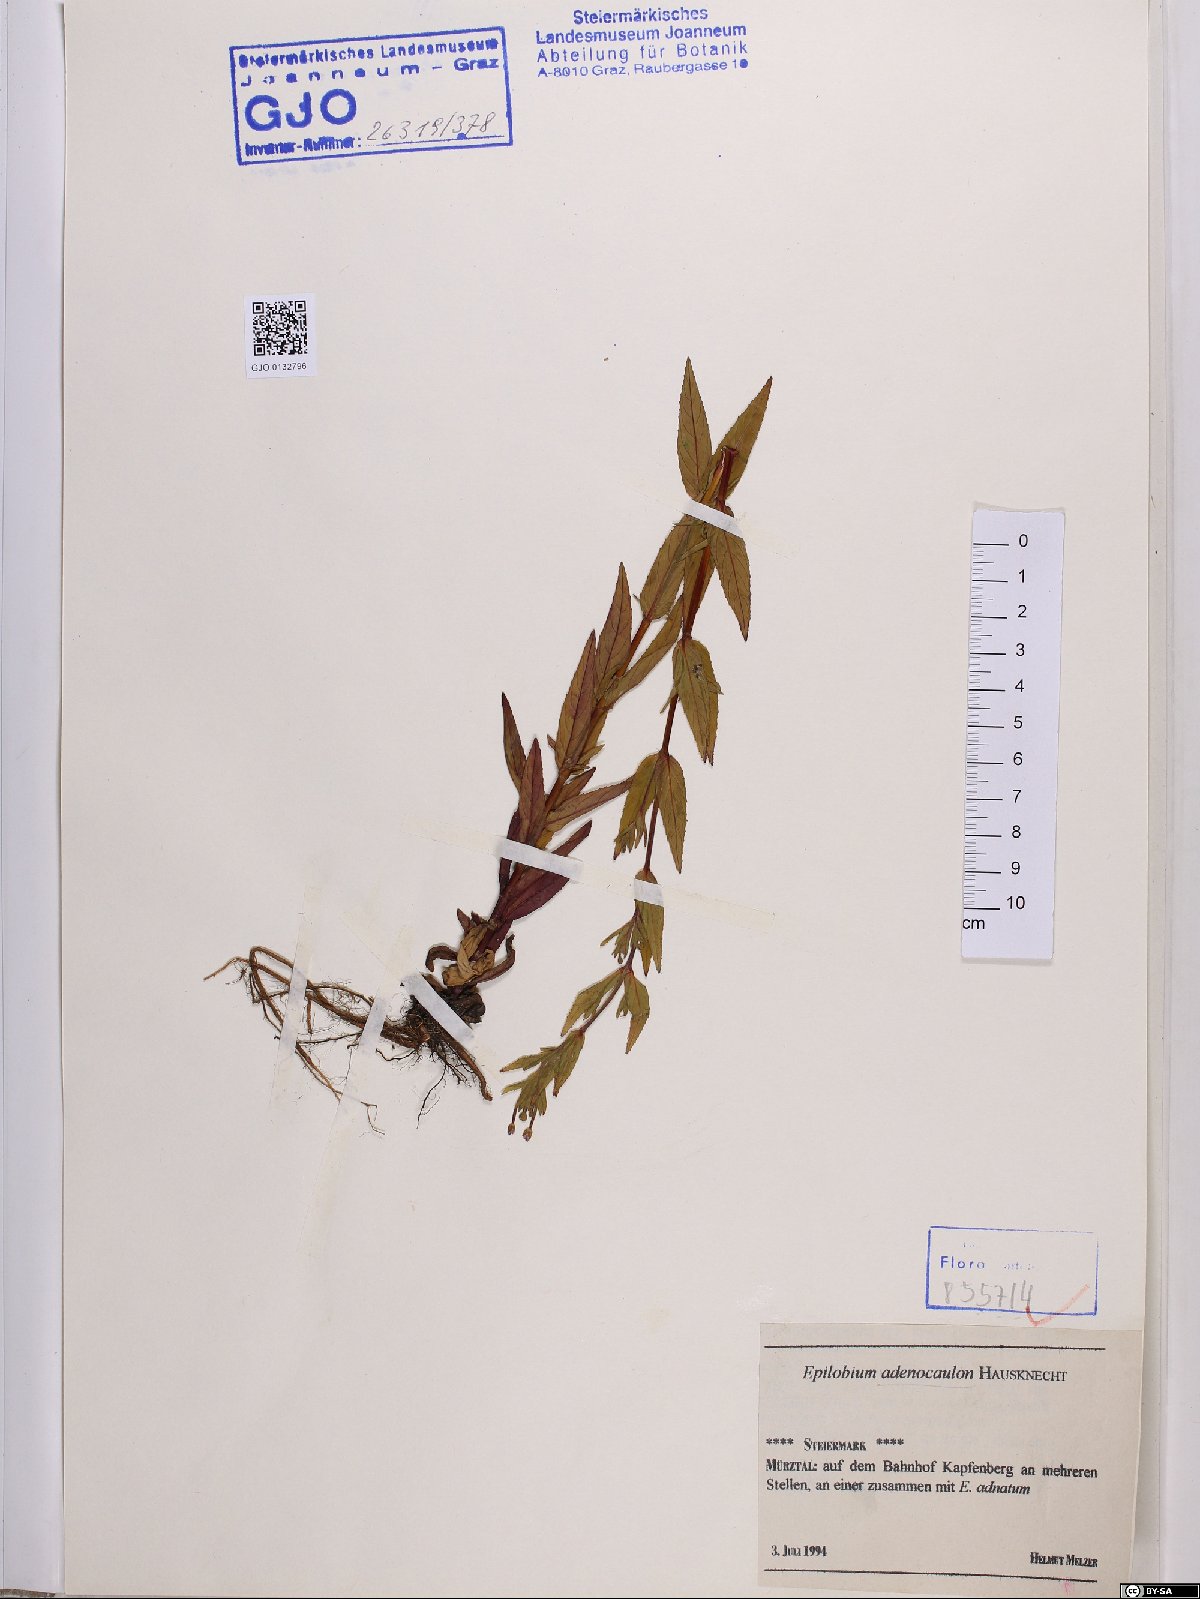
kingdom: Plantae
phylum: Tracheophyta
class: Magnoliopsida
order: Myrtales
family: Onagraceae
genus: Epilobium
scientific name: Epilobium ciliatum
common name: American willowherb
